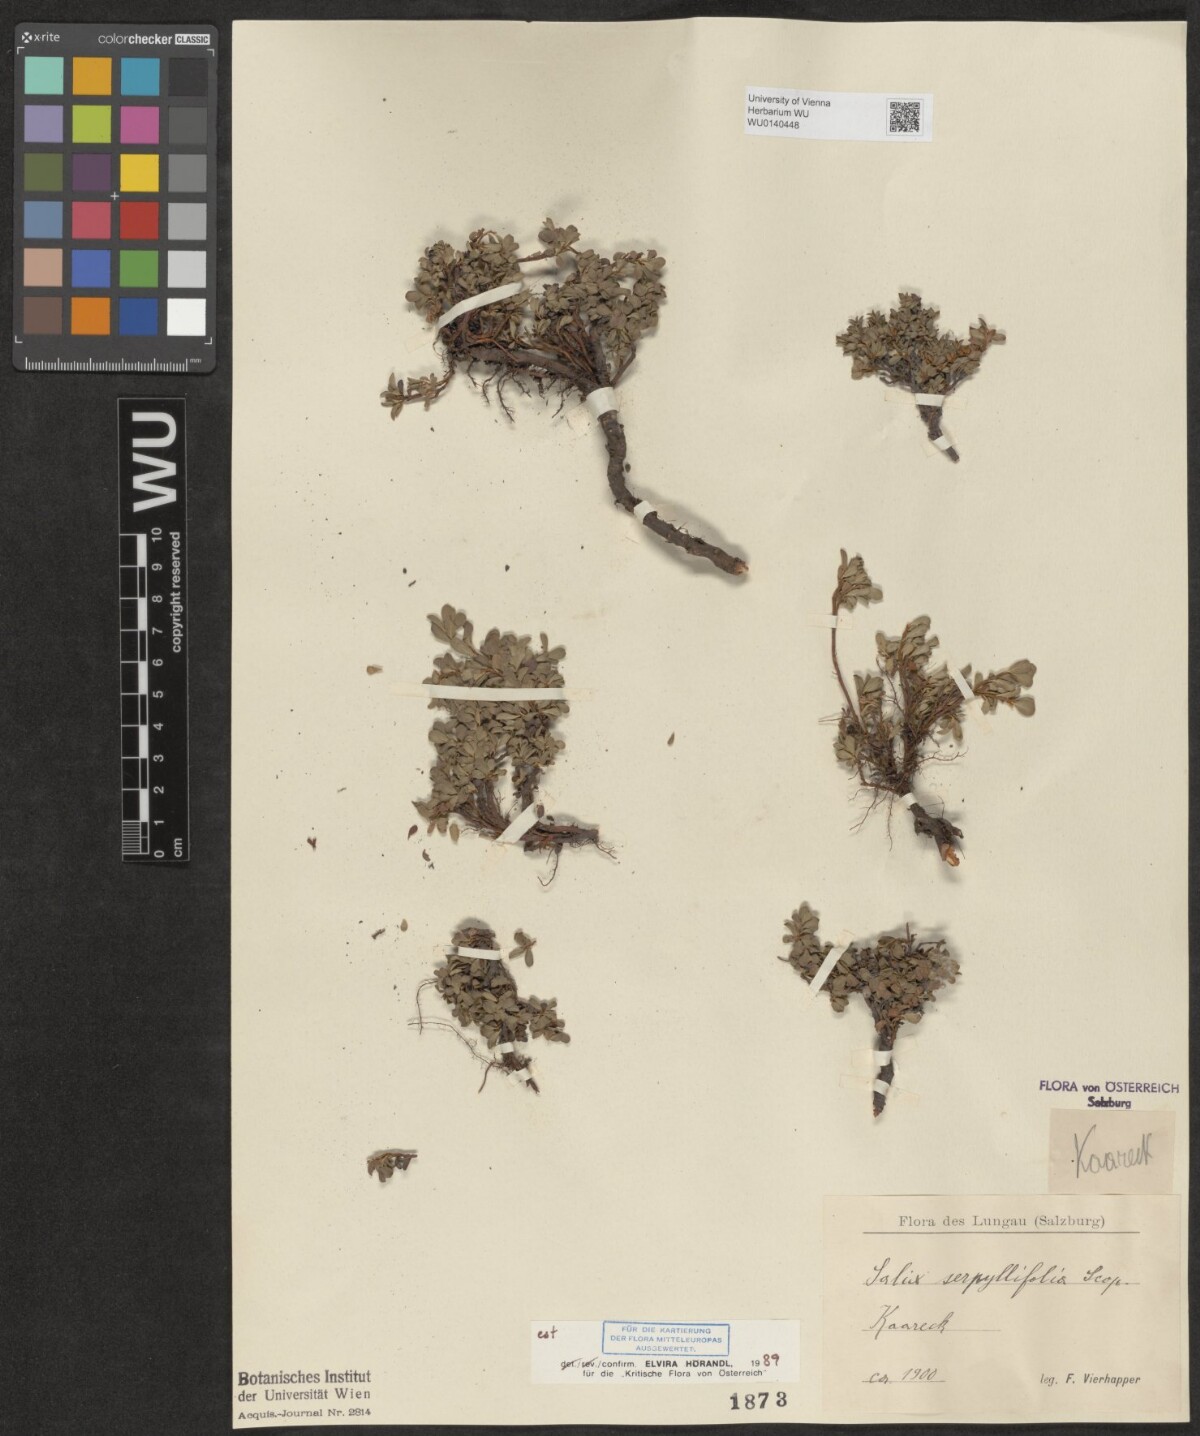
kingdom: Plantae
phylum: Tracheophyta
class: Magnoliopsida
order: Malpighiales
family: Salicaceae
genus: Salix
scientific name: Salix serpillifolia
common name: Thyme-leaf willow
